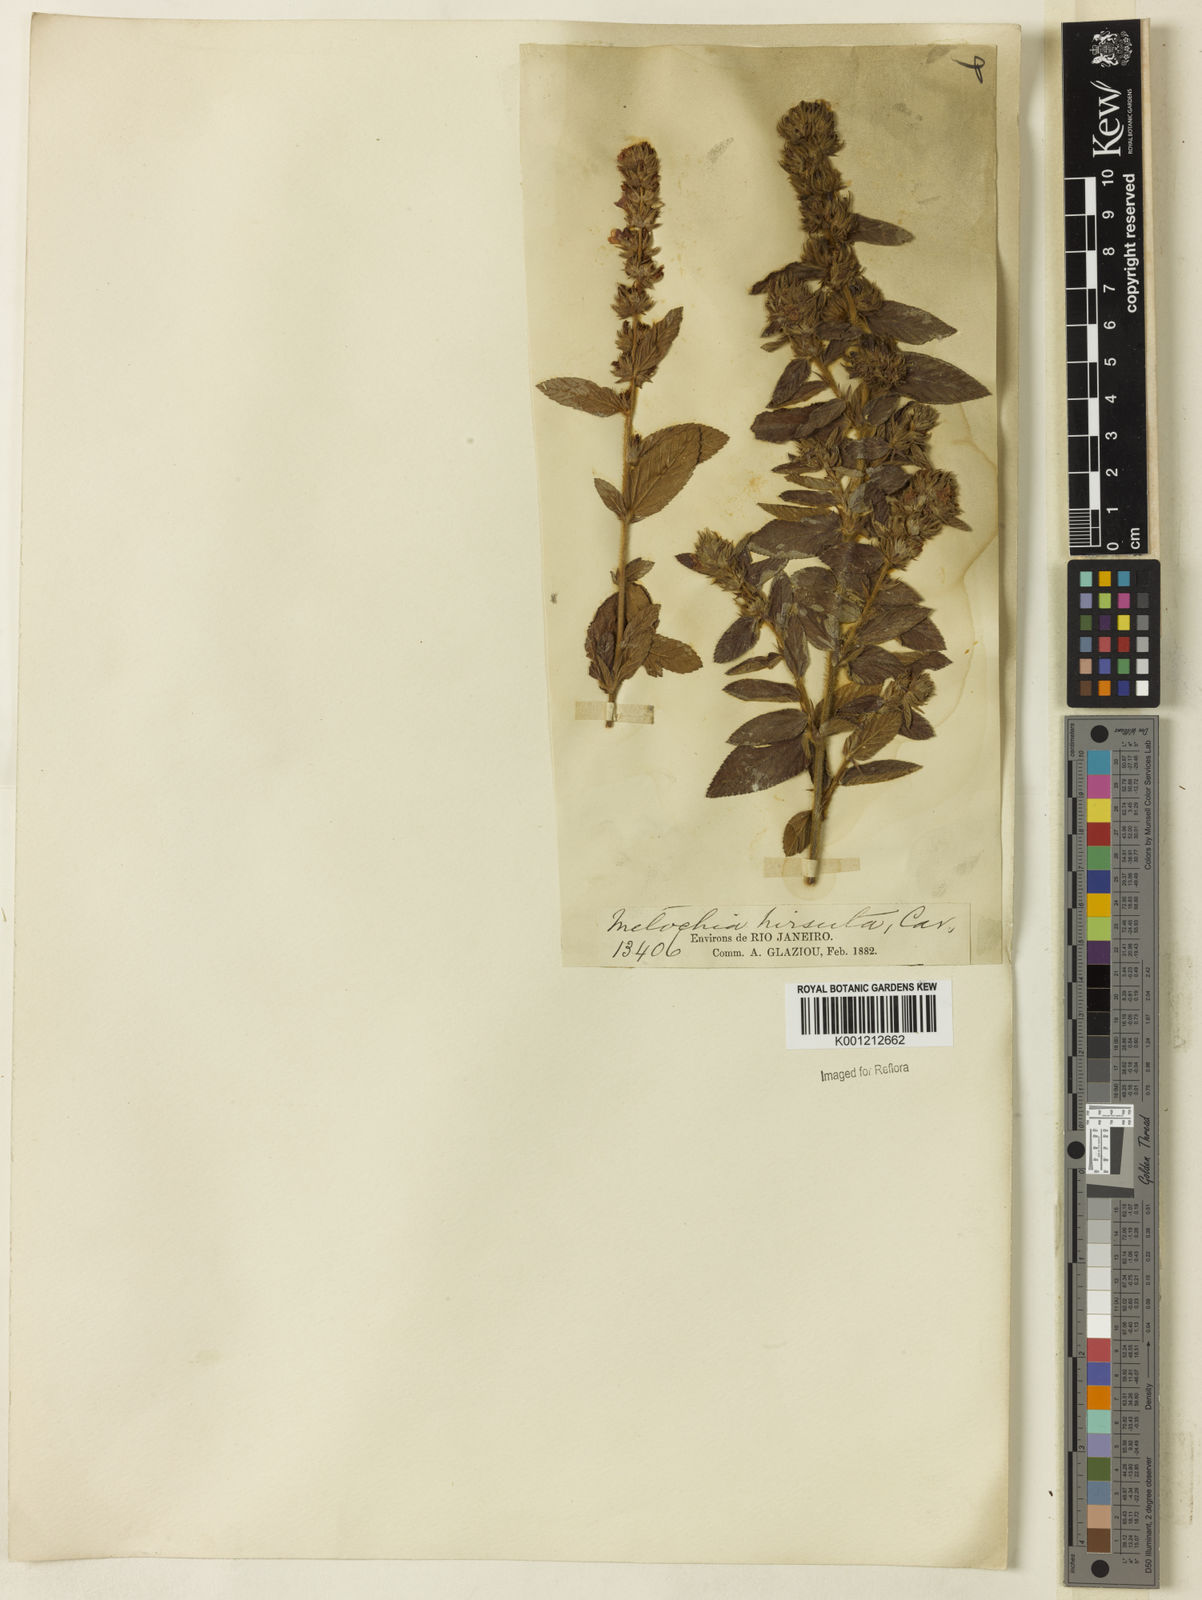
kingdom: Plantae
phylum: Tracheophyta
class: Magnoliopsida
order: Malvales
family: Malvaceae
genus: Melochia
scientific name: Melochia spicata
